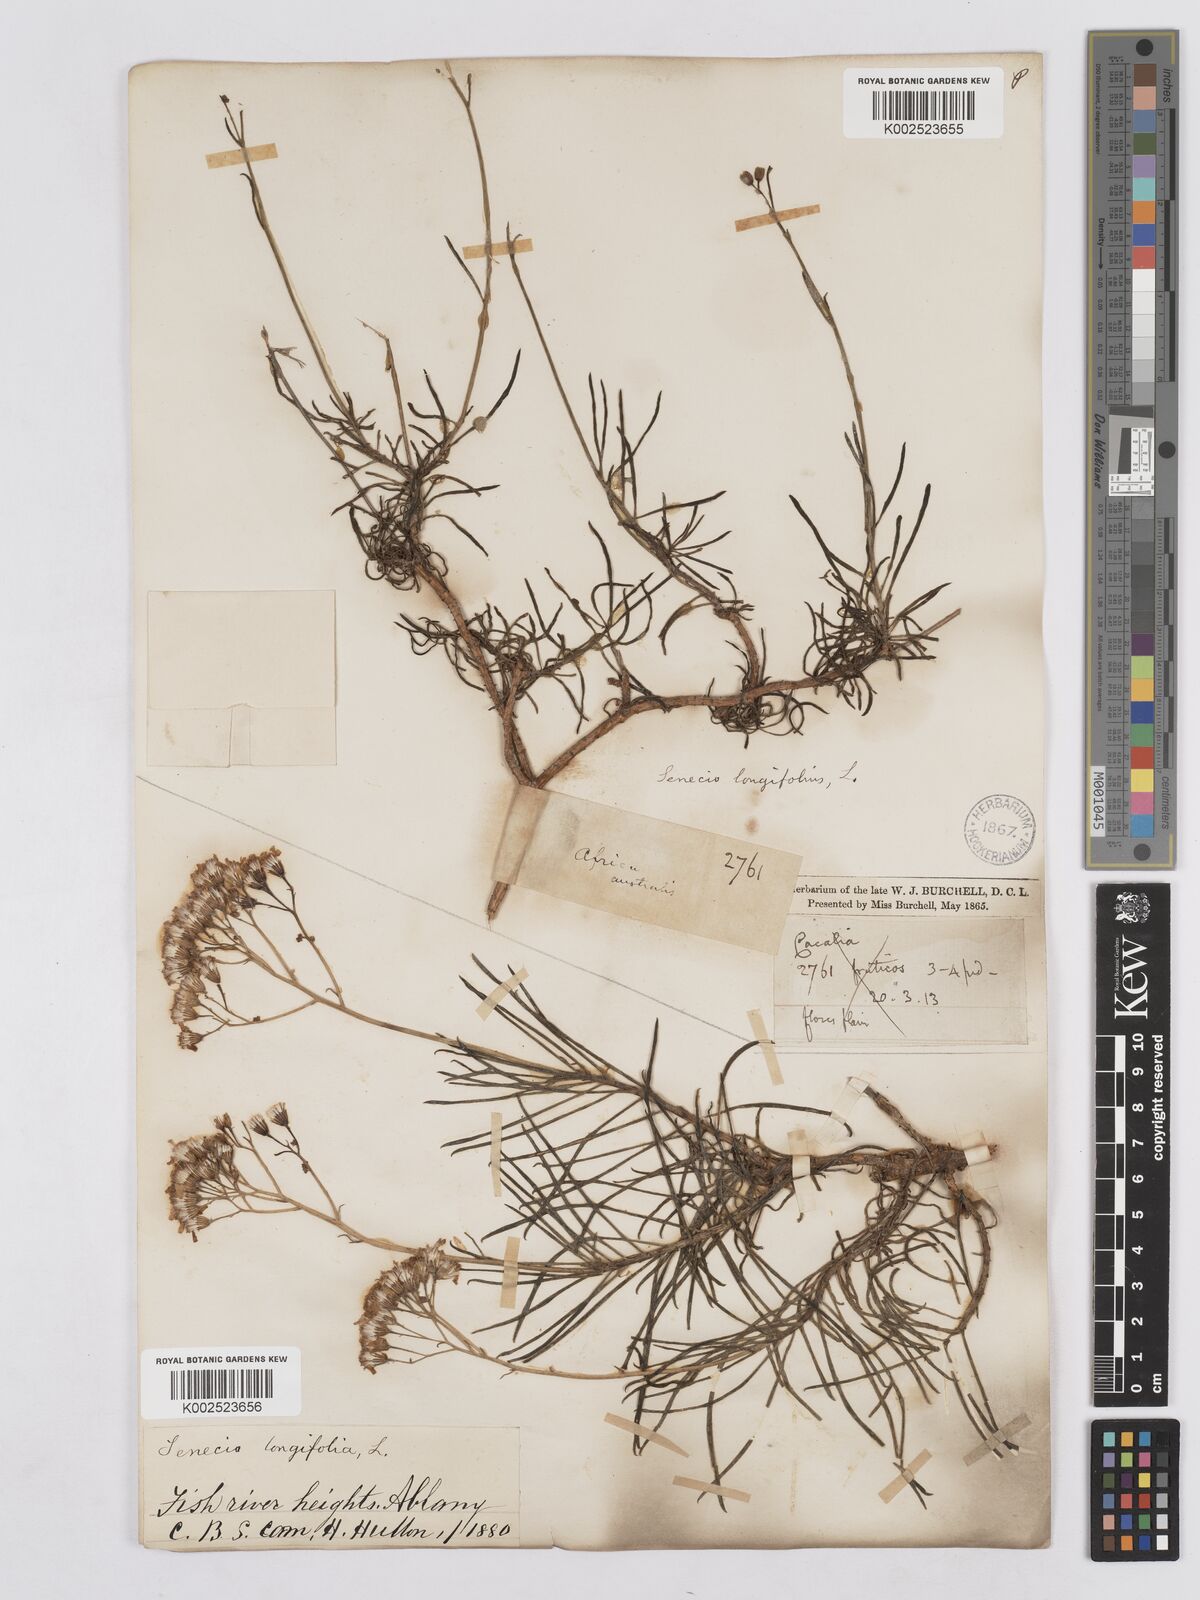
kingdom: Plantae
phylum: Tracheophyta
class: Magnoliopsida
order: Asterales
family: Asteraceae
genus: Senecio
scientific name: Senecio linifolius
